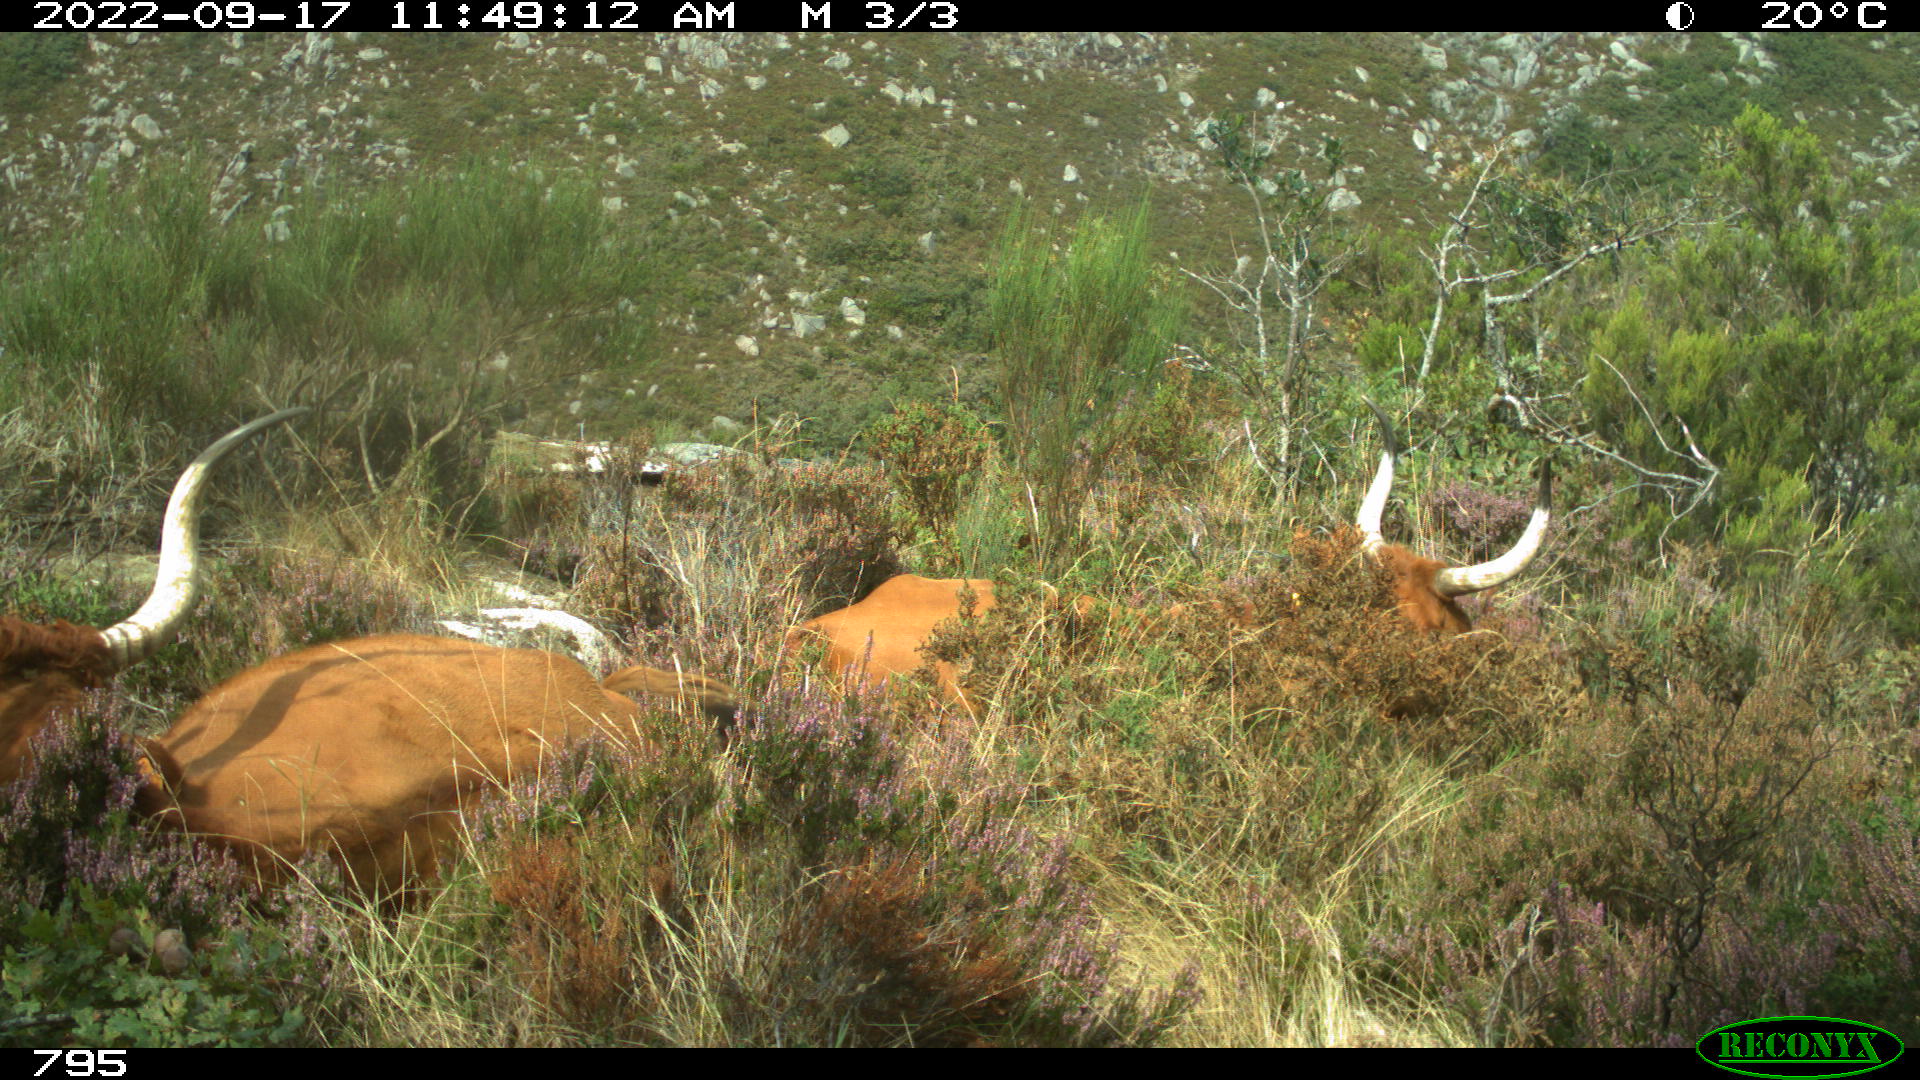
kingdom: Animalia
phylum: Chordata
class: Mammalia
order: Artiodactyla
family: Bovidae
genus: Bos
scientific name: Bos taurus
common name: Domesticated cattle
